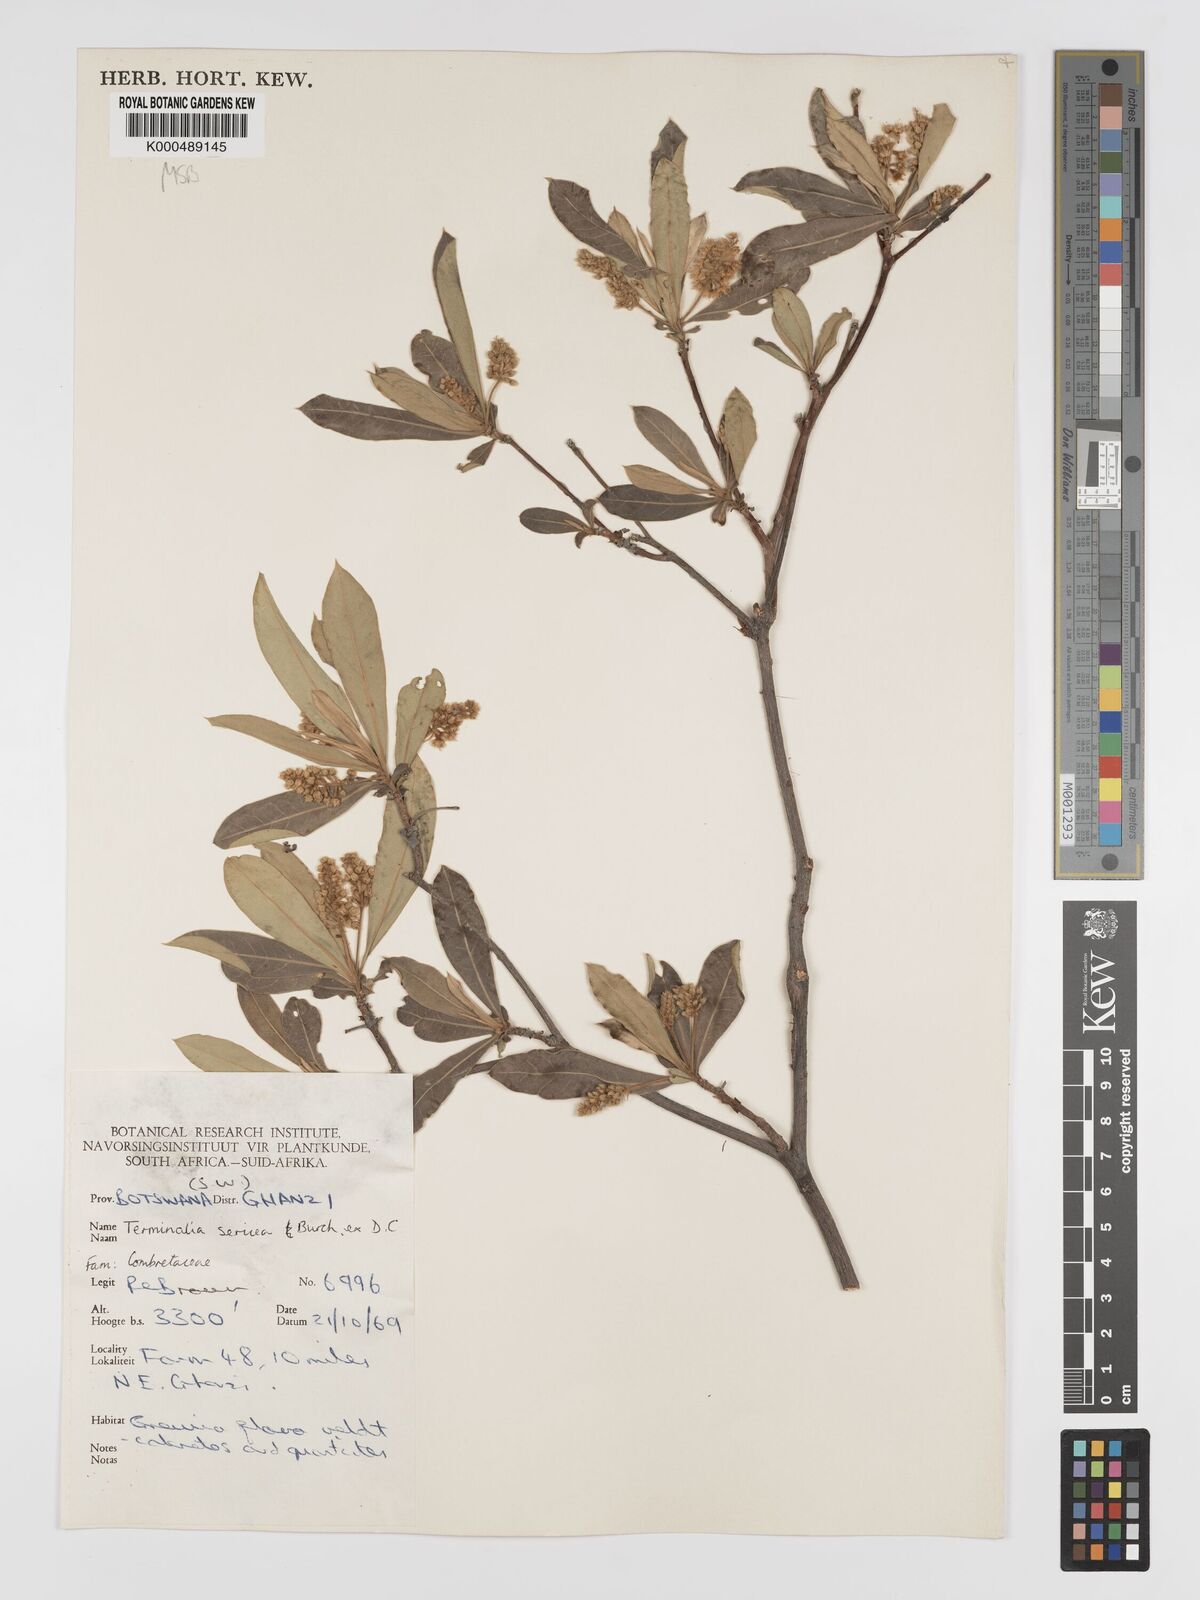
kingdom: Plantae
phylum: Tracheophyta
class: Magnoliopsida
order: Myrtales
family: Combretaceae
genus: Terminalia
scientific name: Terminalia sericea
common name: Clusterleaf
